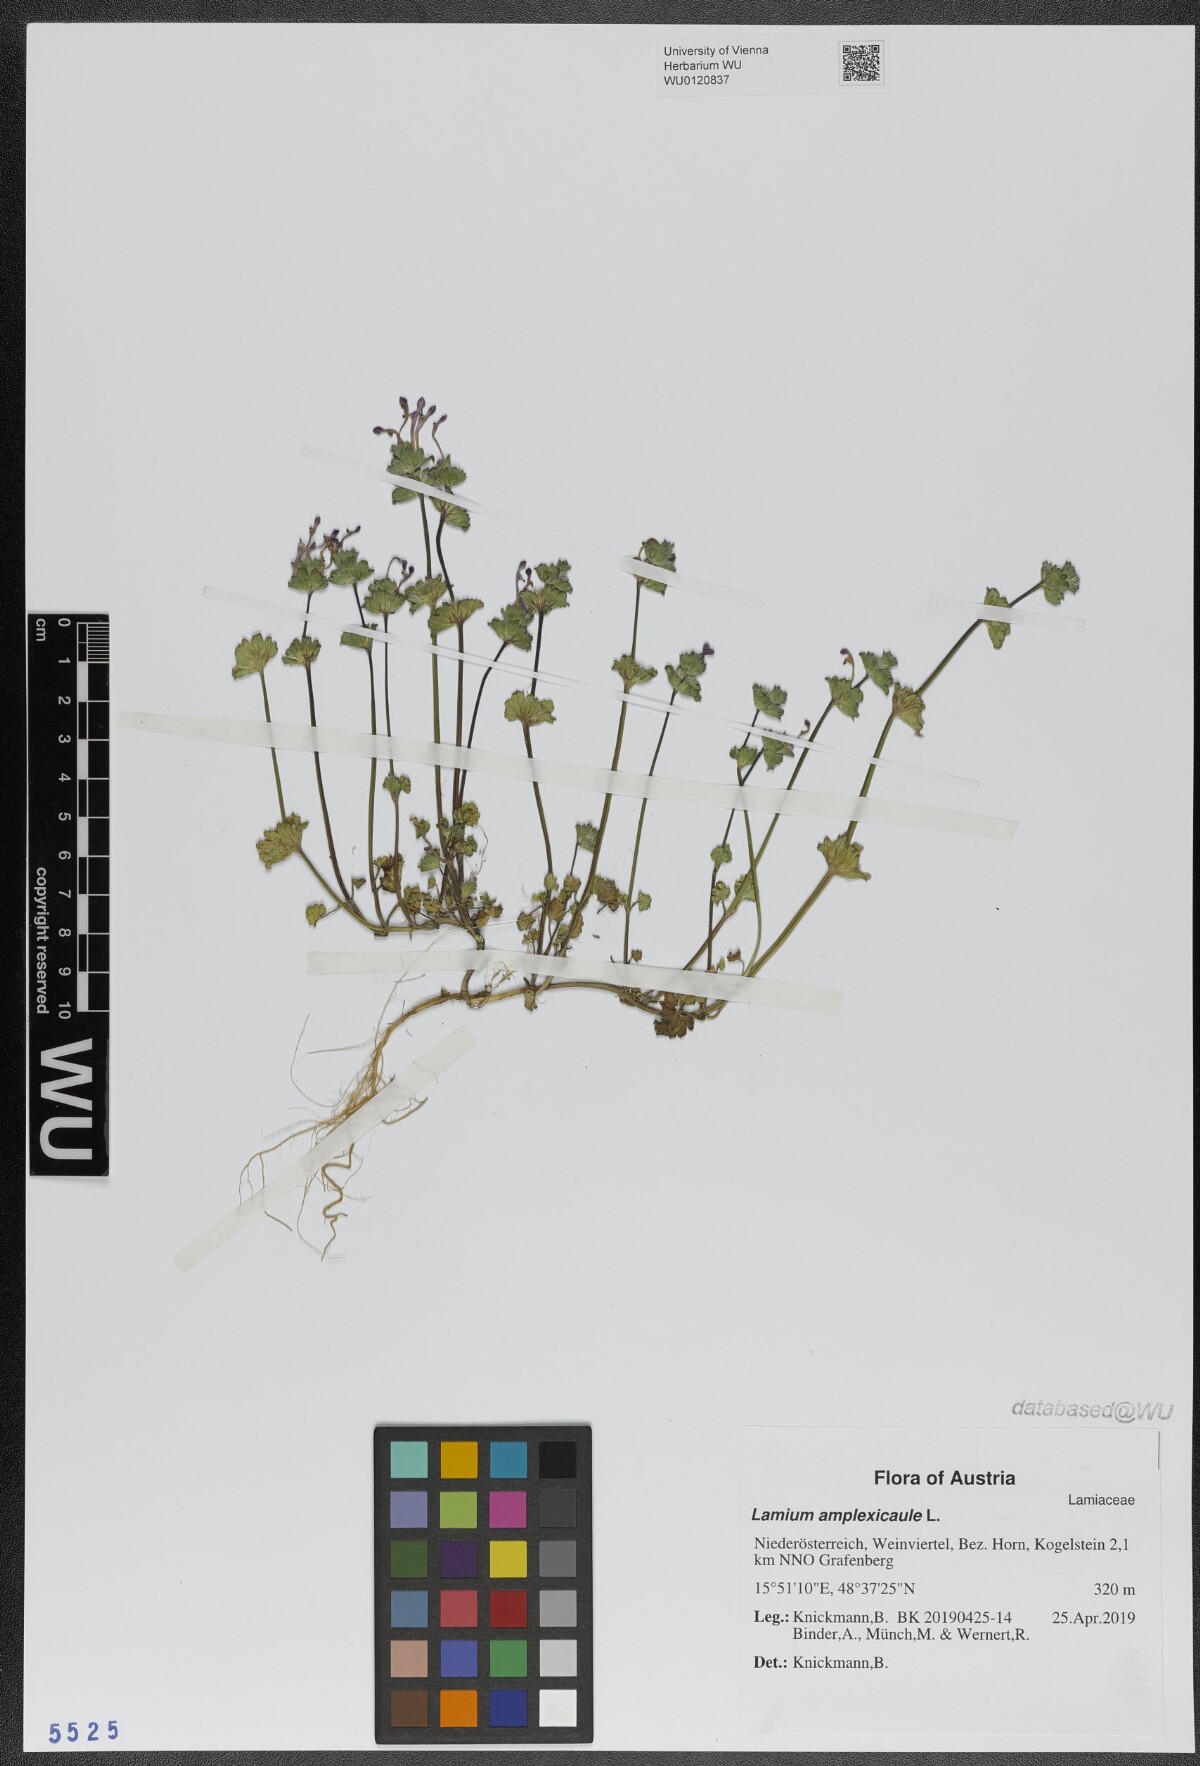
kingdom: Plantae
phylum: Tracheophyta
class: Magnoliopsida
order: Lamiales
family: Lamiaceae
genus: Lamium
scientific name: Lamium amplexicaule
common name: Henbit dead-nettle
